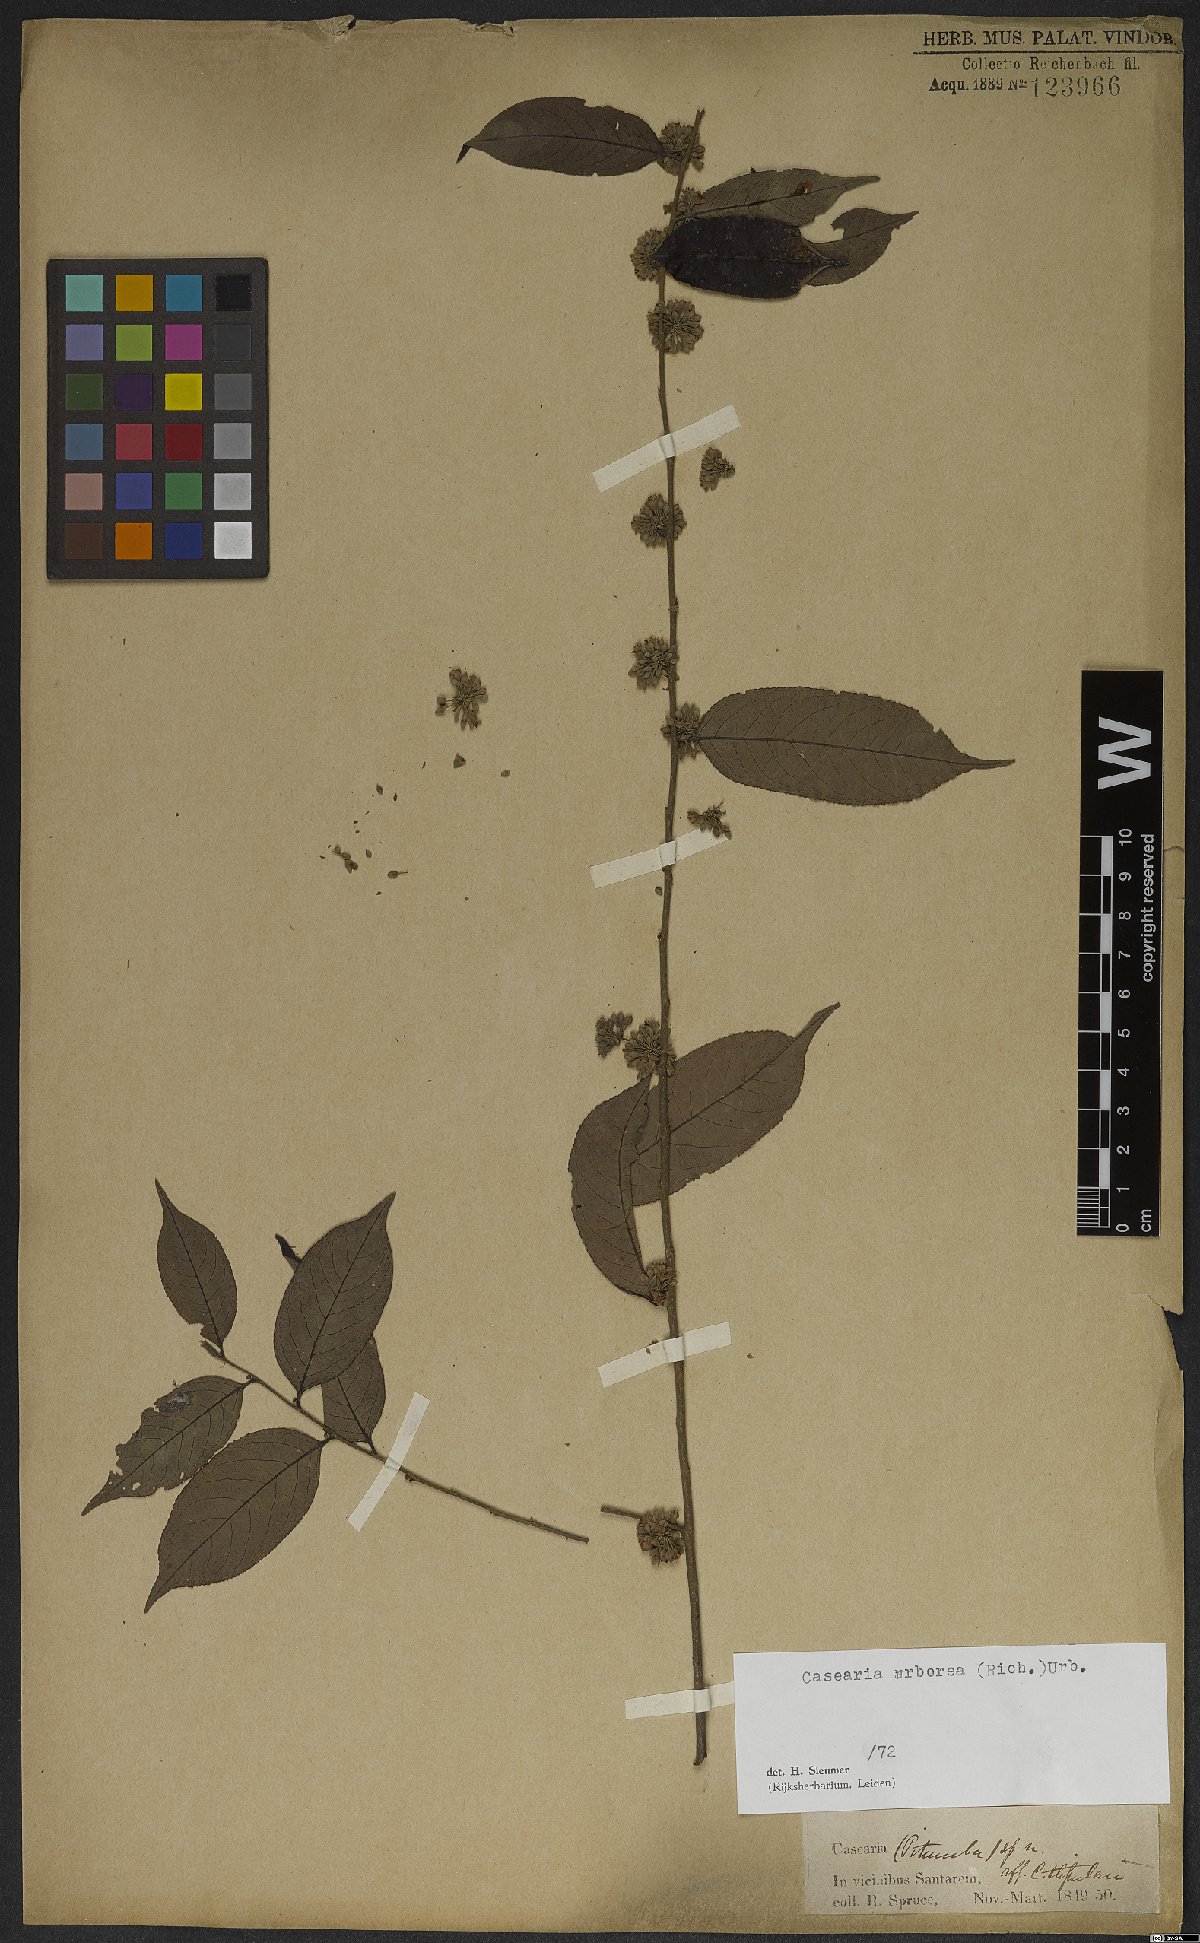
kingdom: Plantae
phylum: Tracheophyta
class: Magnoliopsida
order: Malpighiales
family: Salicaceae
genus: Casearia
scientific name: Casearia arborea
